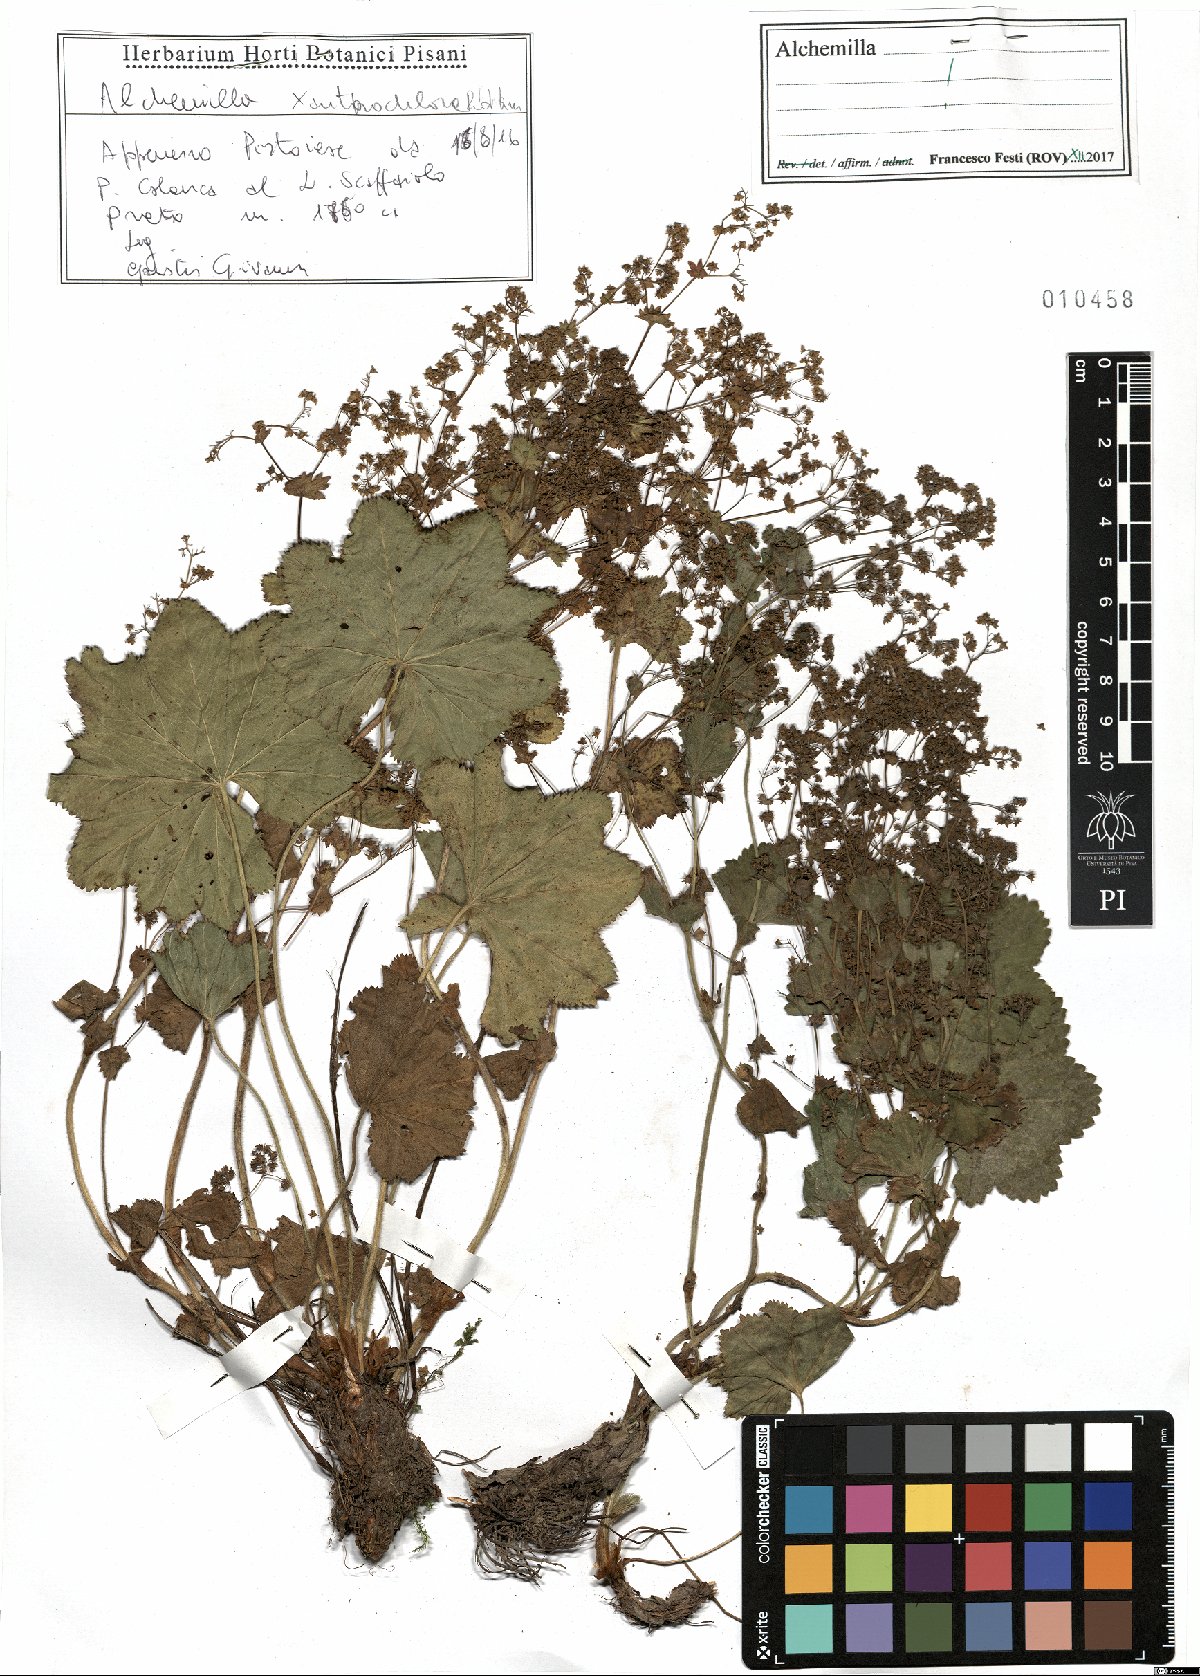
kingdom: Plantae
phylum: Tracheophyta
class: Magnoliopsida
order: Rosales
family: Rosaceae
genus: Alchemilla
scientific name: Alchemilla xanthochlora
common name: Intermediate lady's-mantle
